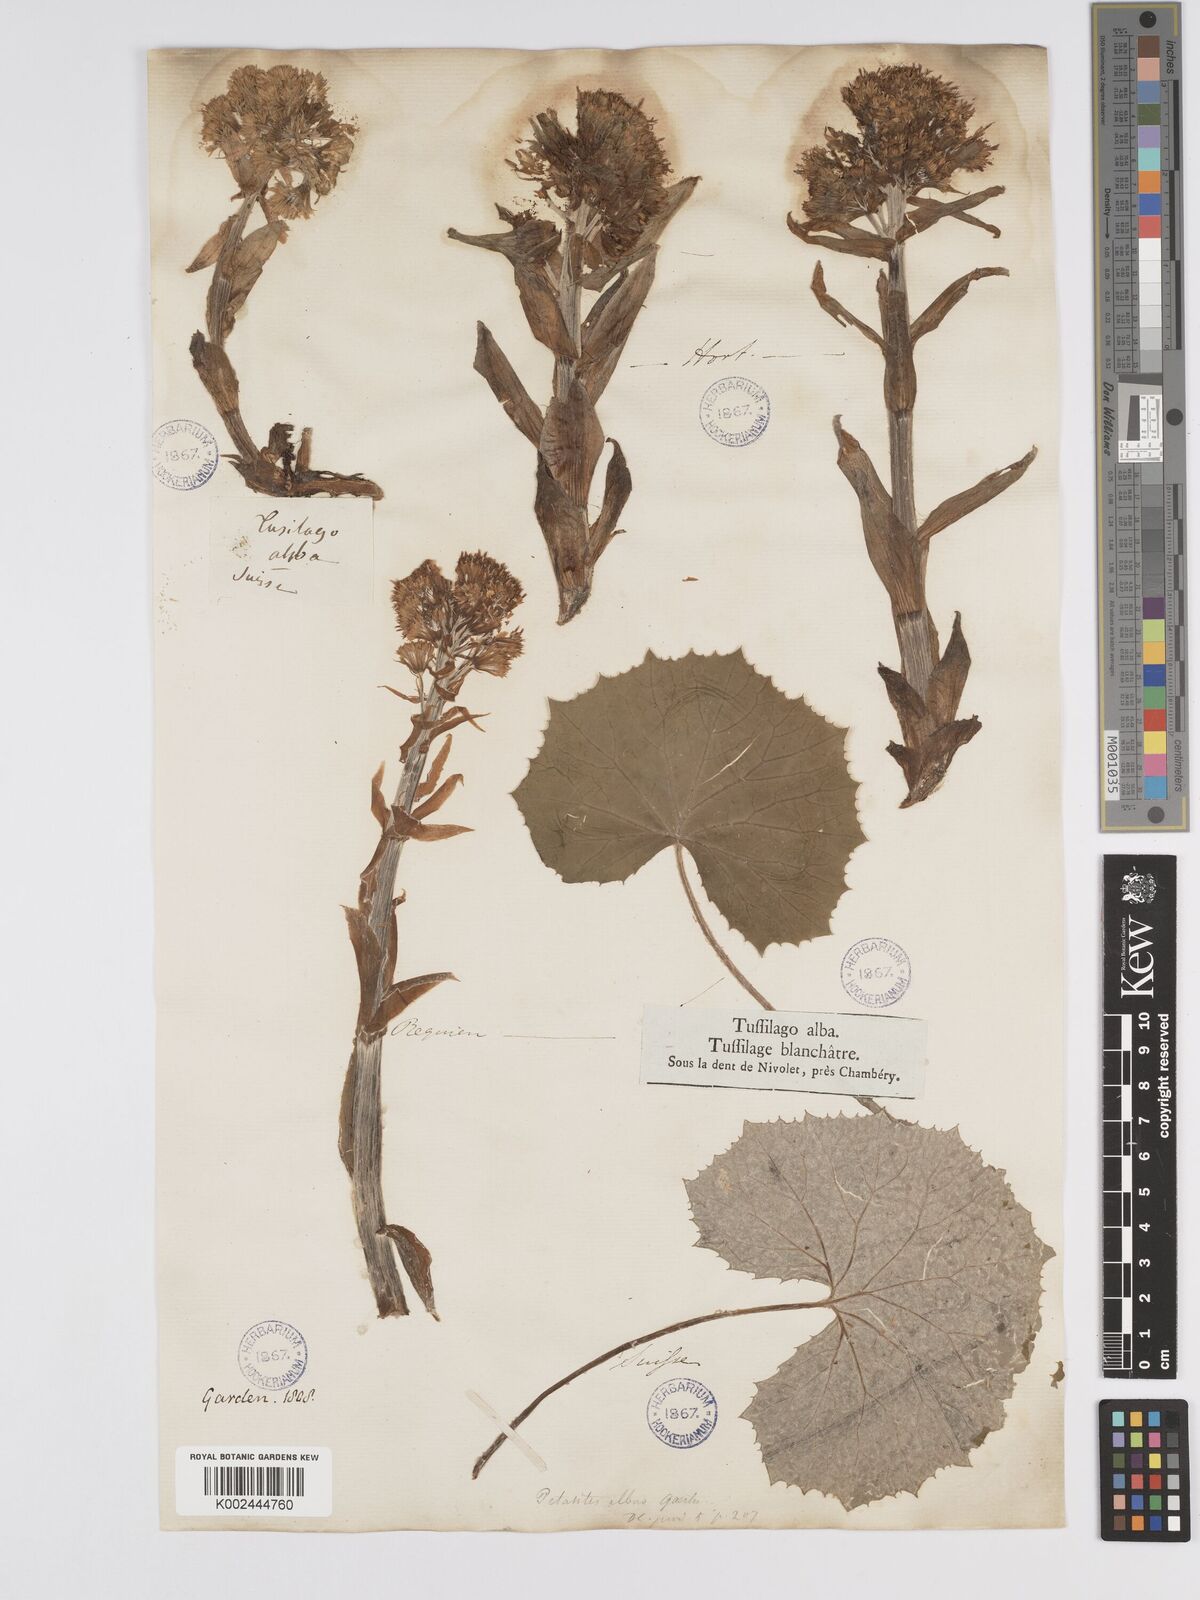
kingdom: Plantae
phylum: Tracheophyta
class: Magnoliopsida
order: Asterales
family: Asteraceae
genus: Petasites
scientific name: Petasites albus
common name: White butterbur
